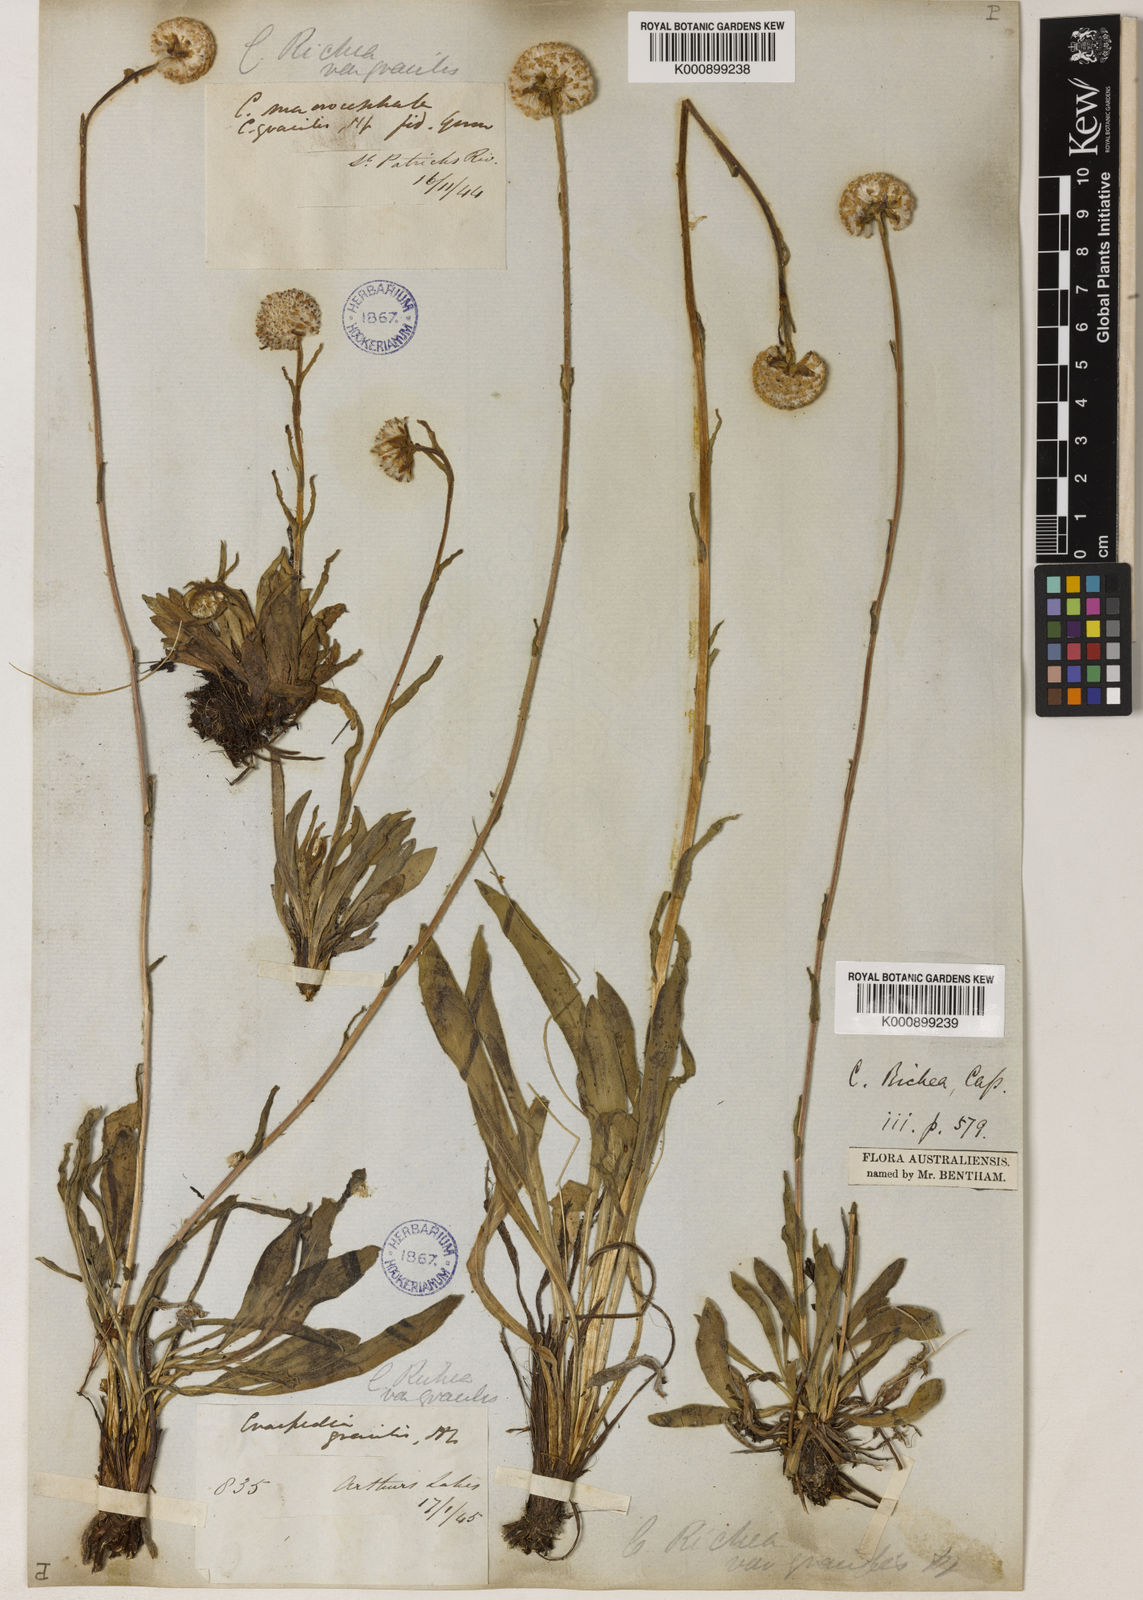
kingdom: Plantae
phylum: Tracheophyta
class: Magnoliopsida
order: Asterales
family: Asteraceae
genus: Craspedia
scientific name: Craspedia glauca
